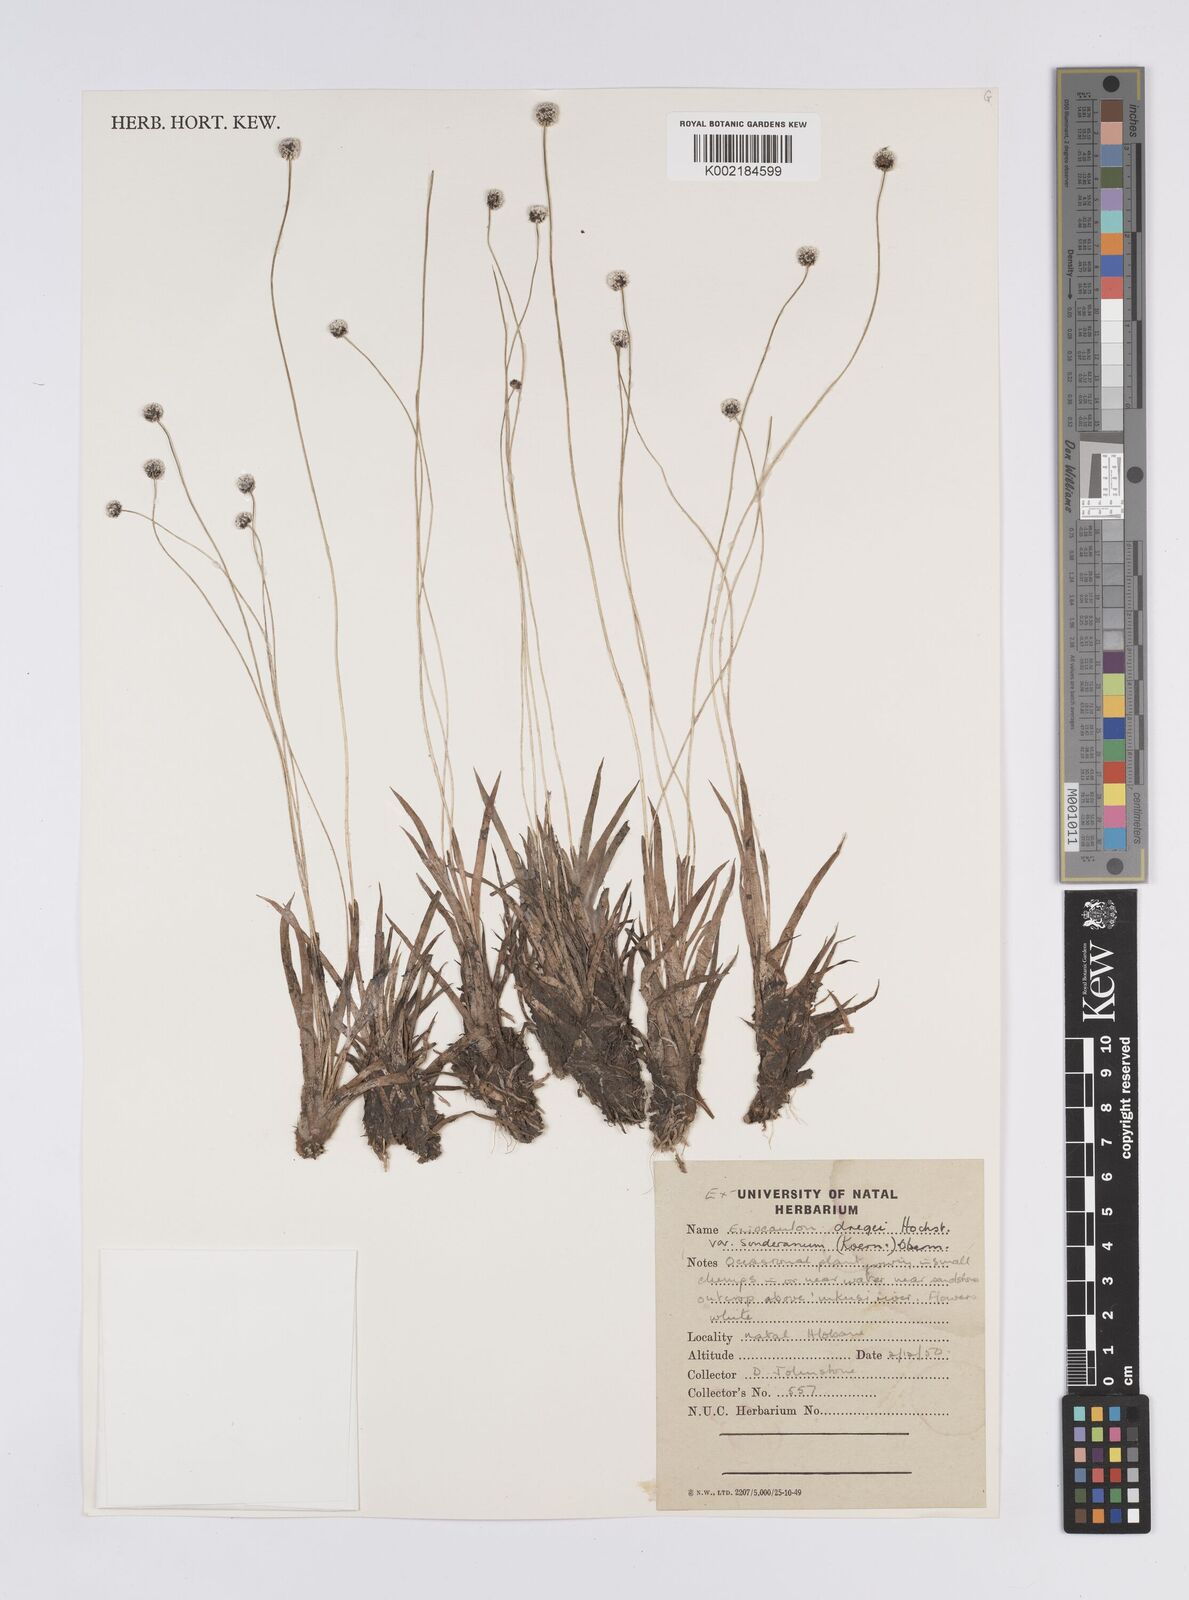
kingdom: Plantae
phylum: Tracheophyta
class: Liliopsida
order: Poales
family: Eriocaulaceae
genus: Eriocaulon
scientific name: Eriocaulon
